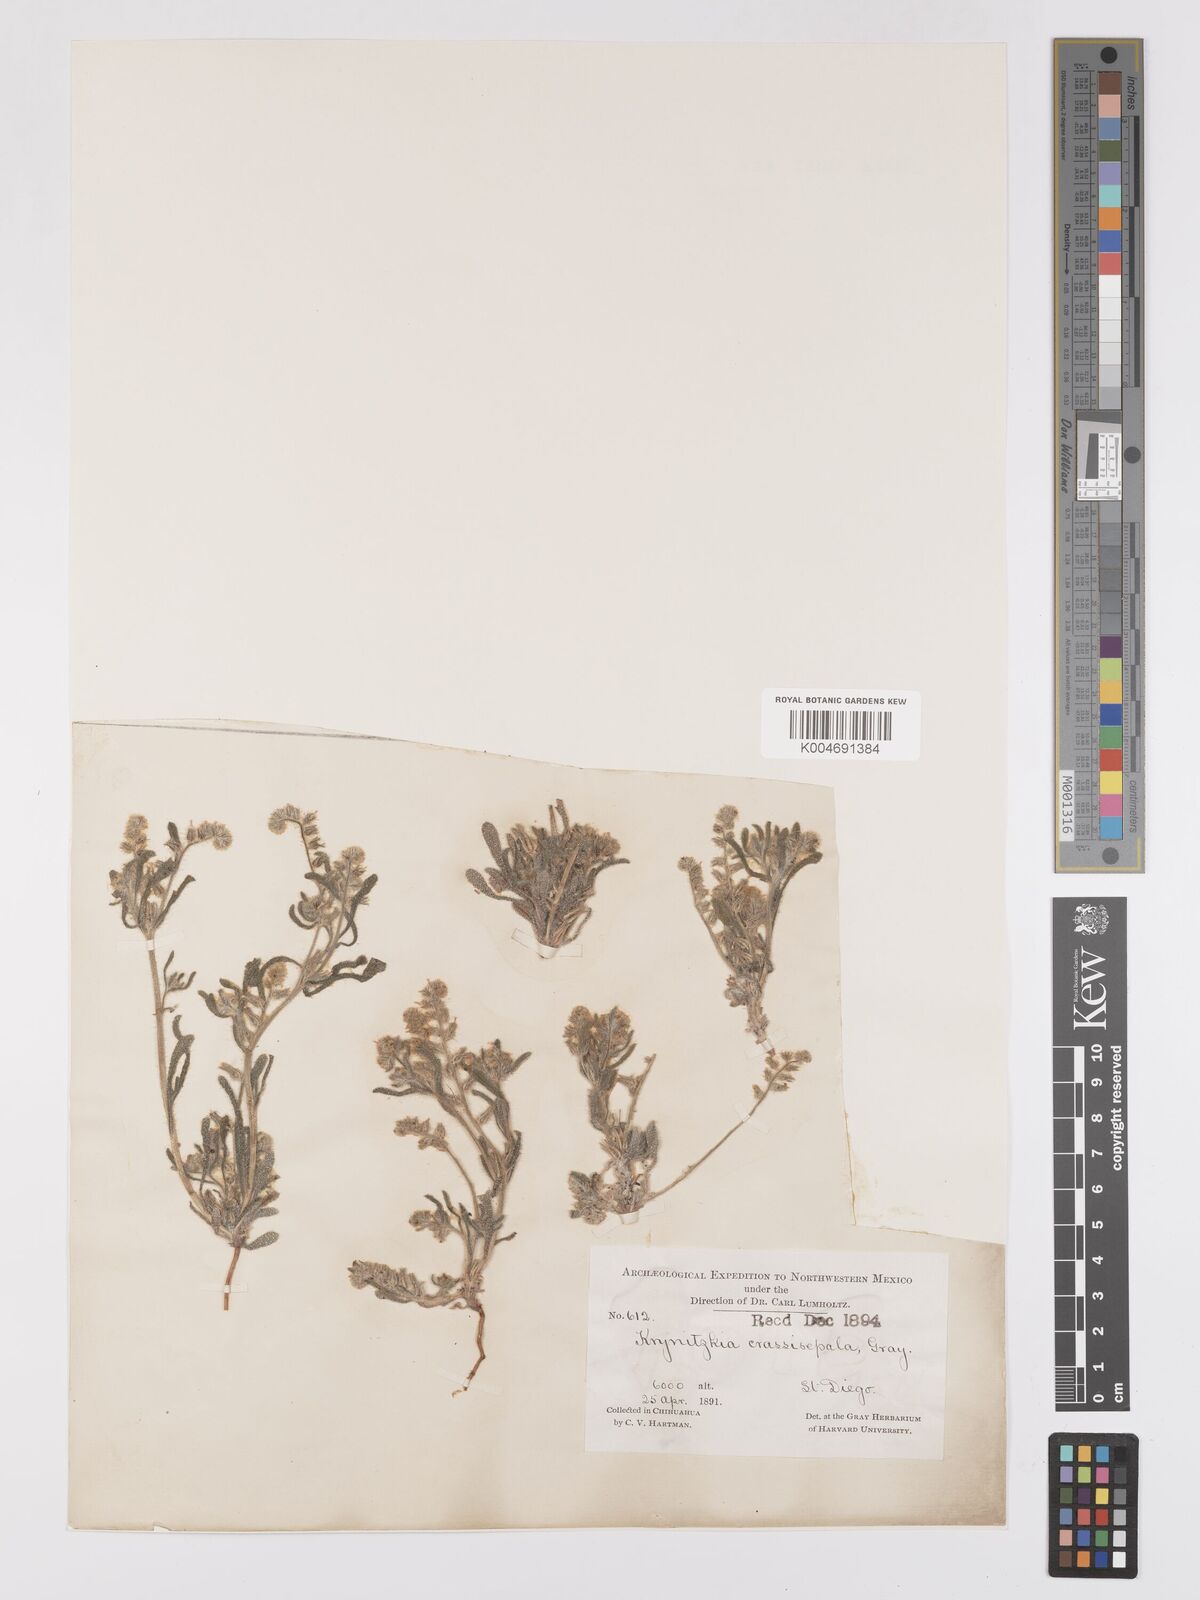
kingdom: Plantae
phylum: Tracheophyta
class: Magnoliopsida
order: Boraginales
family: Boraginaceae
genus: Cryptantha
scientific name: Cryptantha crassisepala
